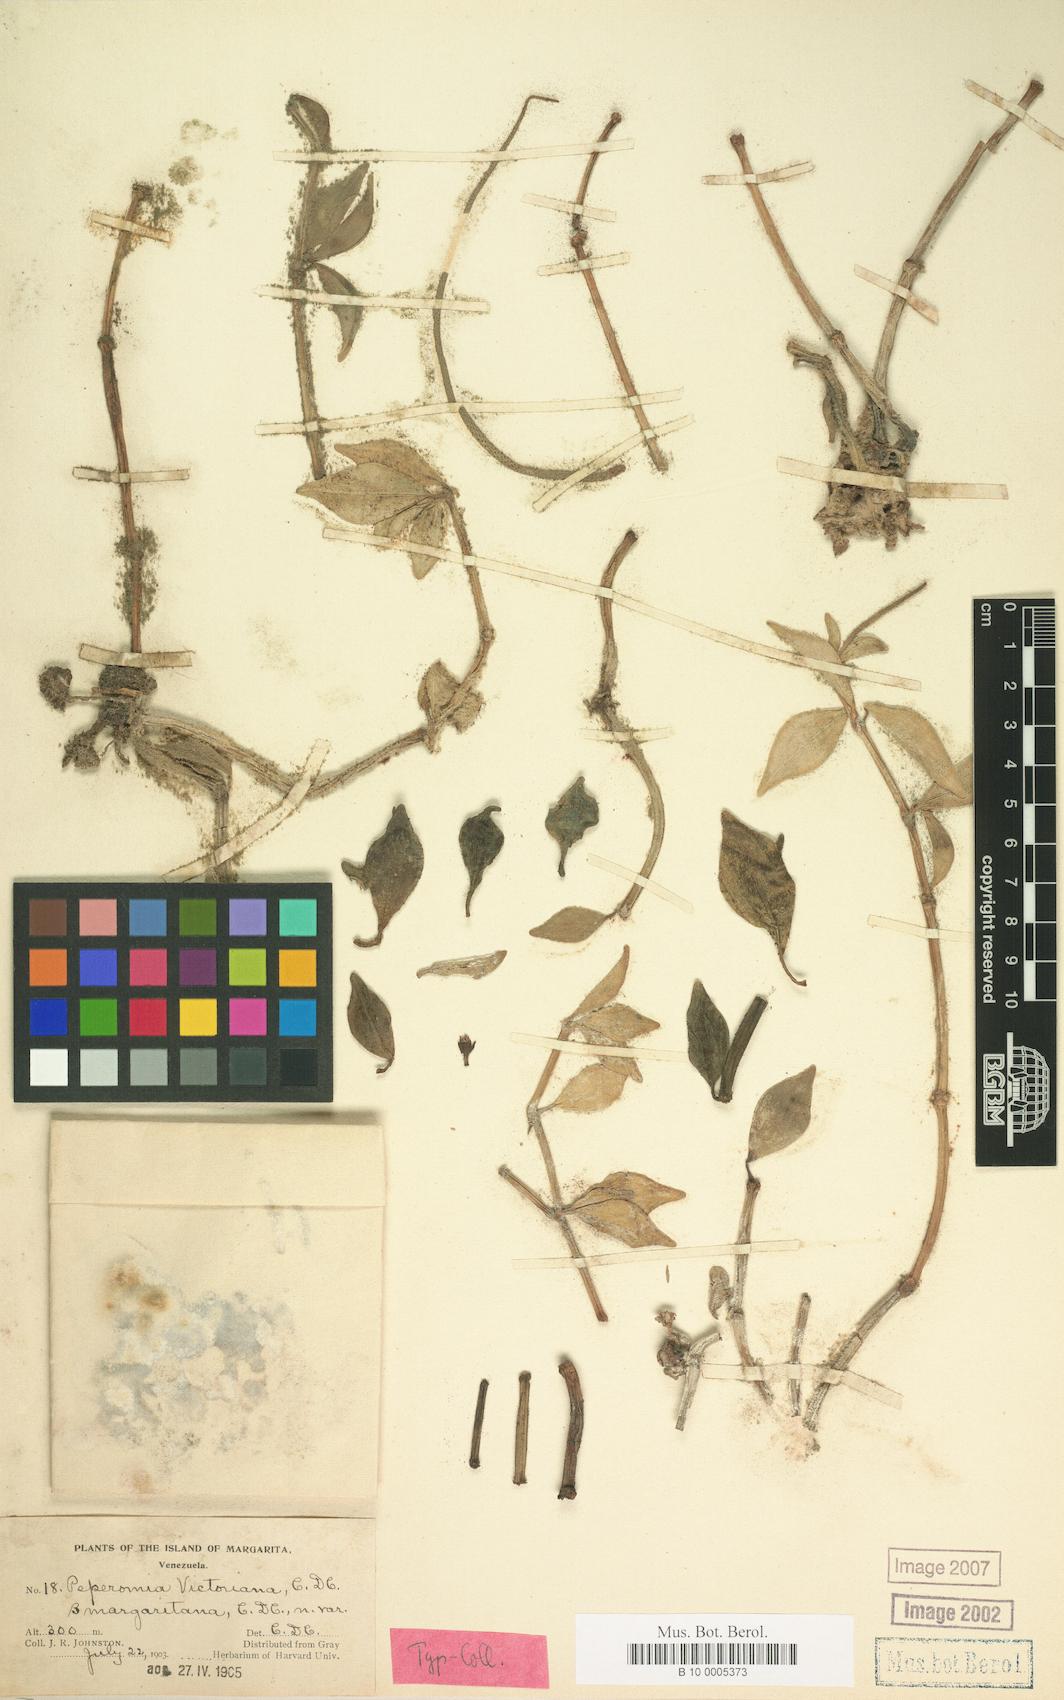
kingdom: Plantae
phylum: Tracheophyta
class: Magnoliopsida
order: Piperales
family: Piperaceae
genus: Peperomia
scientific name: Peperomia angustata
